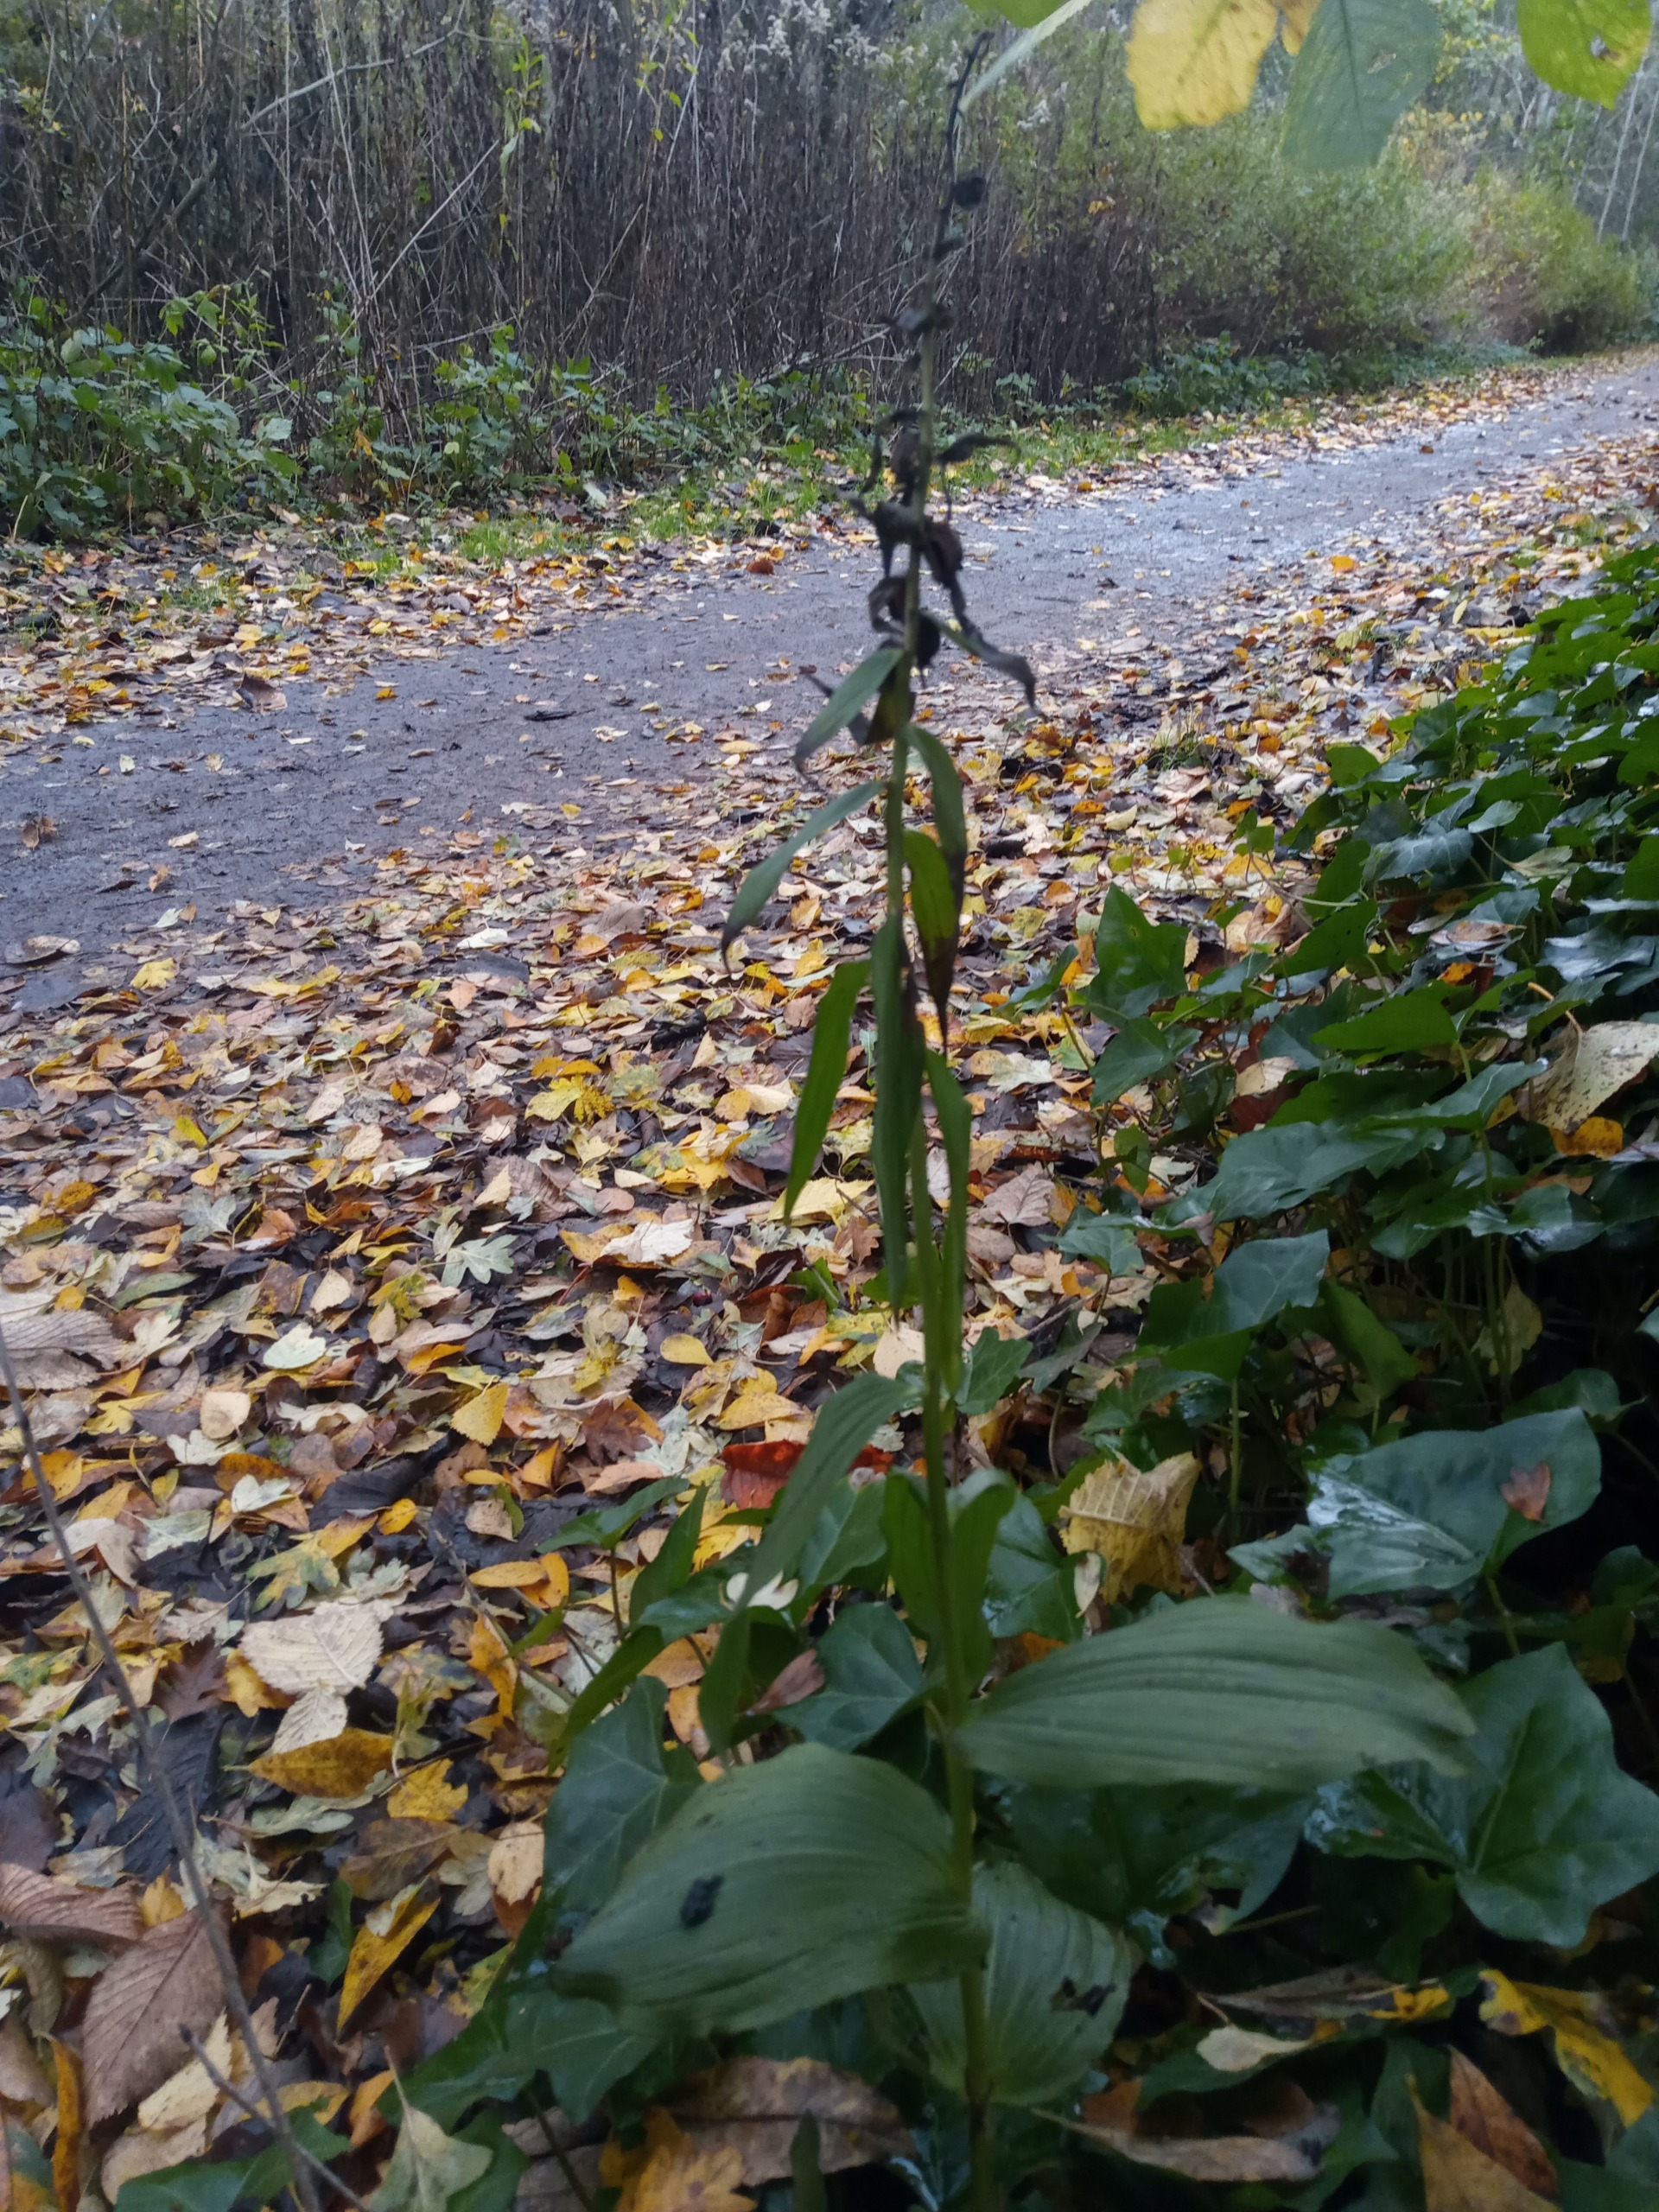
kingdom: Plantae
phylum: Tracheophyta
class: Liliopsida
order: Asparagales
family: Orchidaceae
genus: Epipactis
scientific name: Epipactis helleborine
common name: Skov-hullæbe
